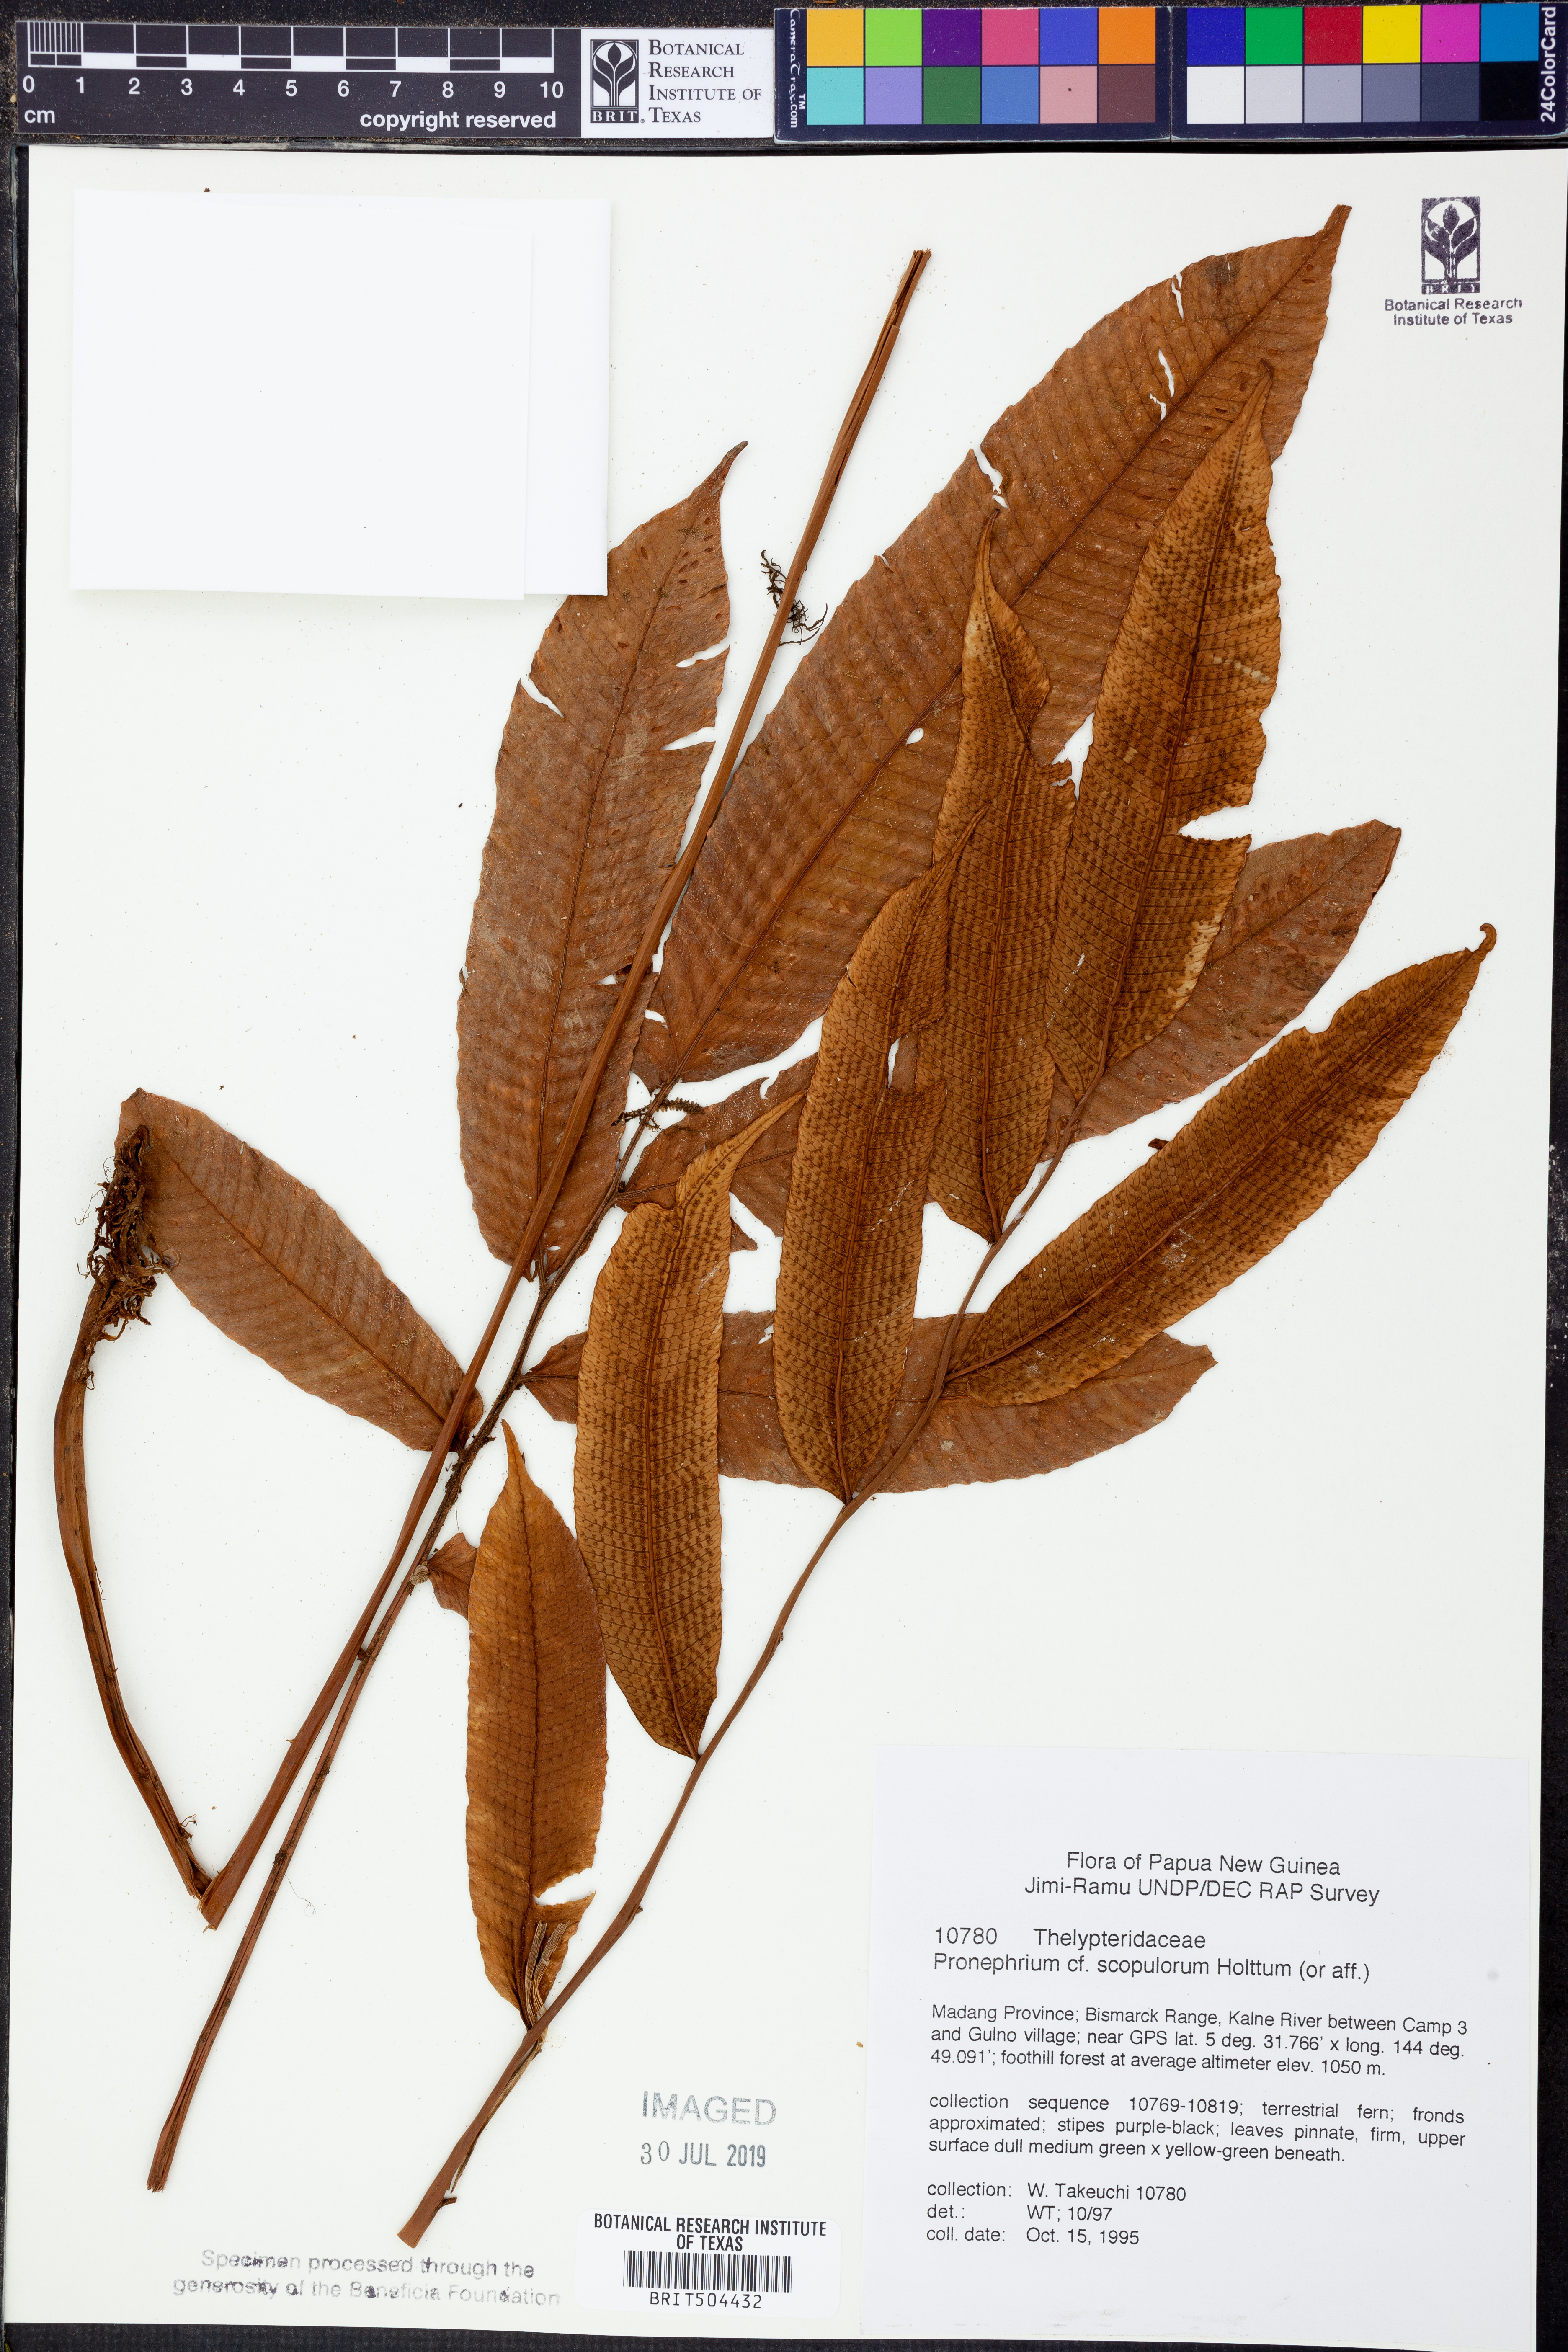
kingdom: Plantae
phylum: Tracheophyta
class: Polypodiopsida
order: Polypodiales
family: Thelypteridaceae
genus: Sphaerostephanos
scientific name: Sphaerostephanos scopulorum
